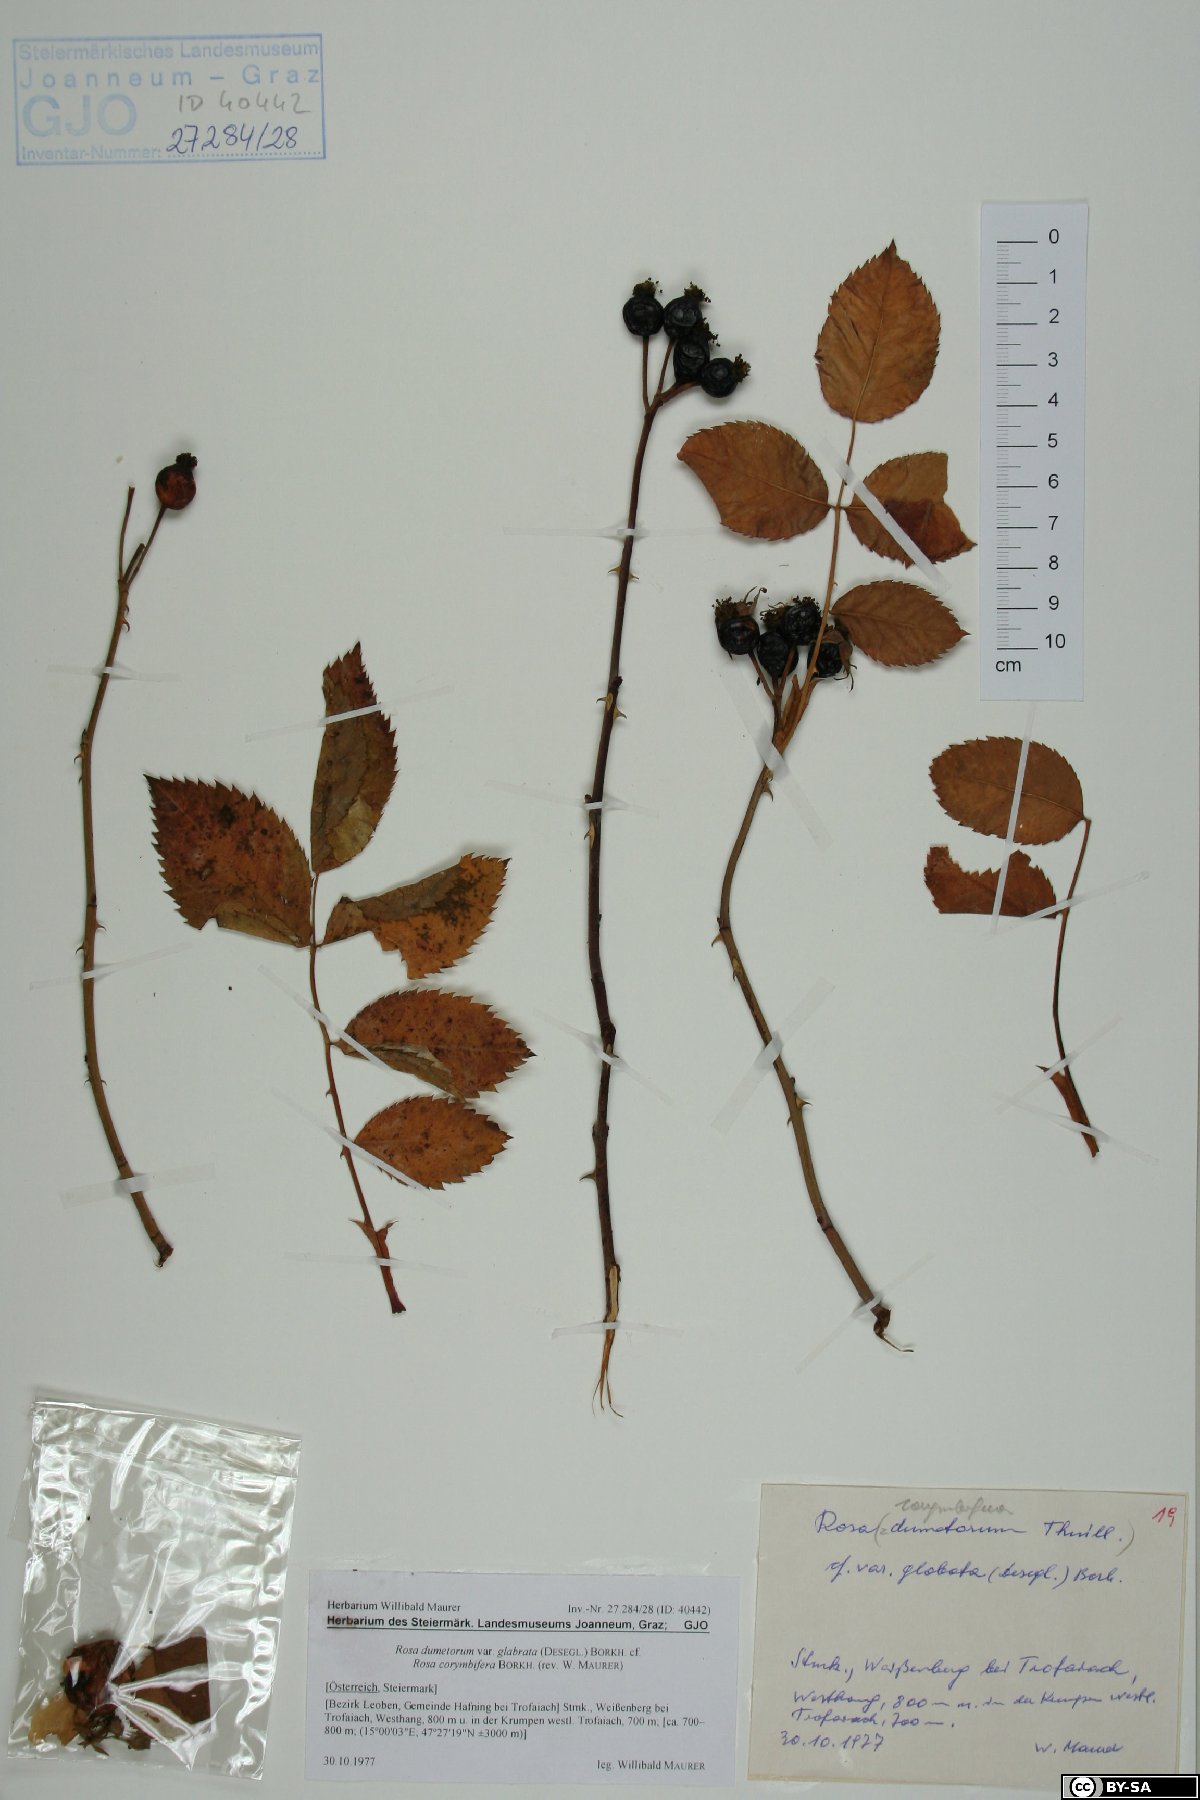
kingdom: Plantae
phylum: Tracheophyta
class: Magnoliopsida
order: Rosales
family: Rosaceae
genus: Rosa
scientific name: Rosa corymbifera
